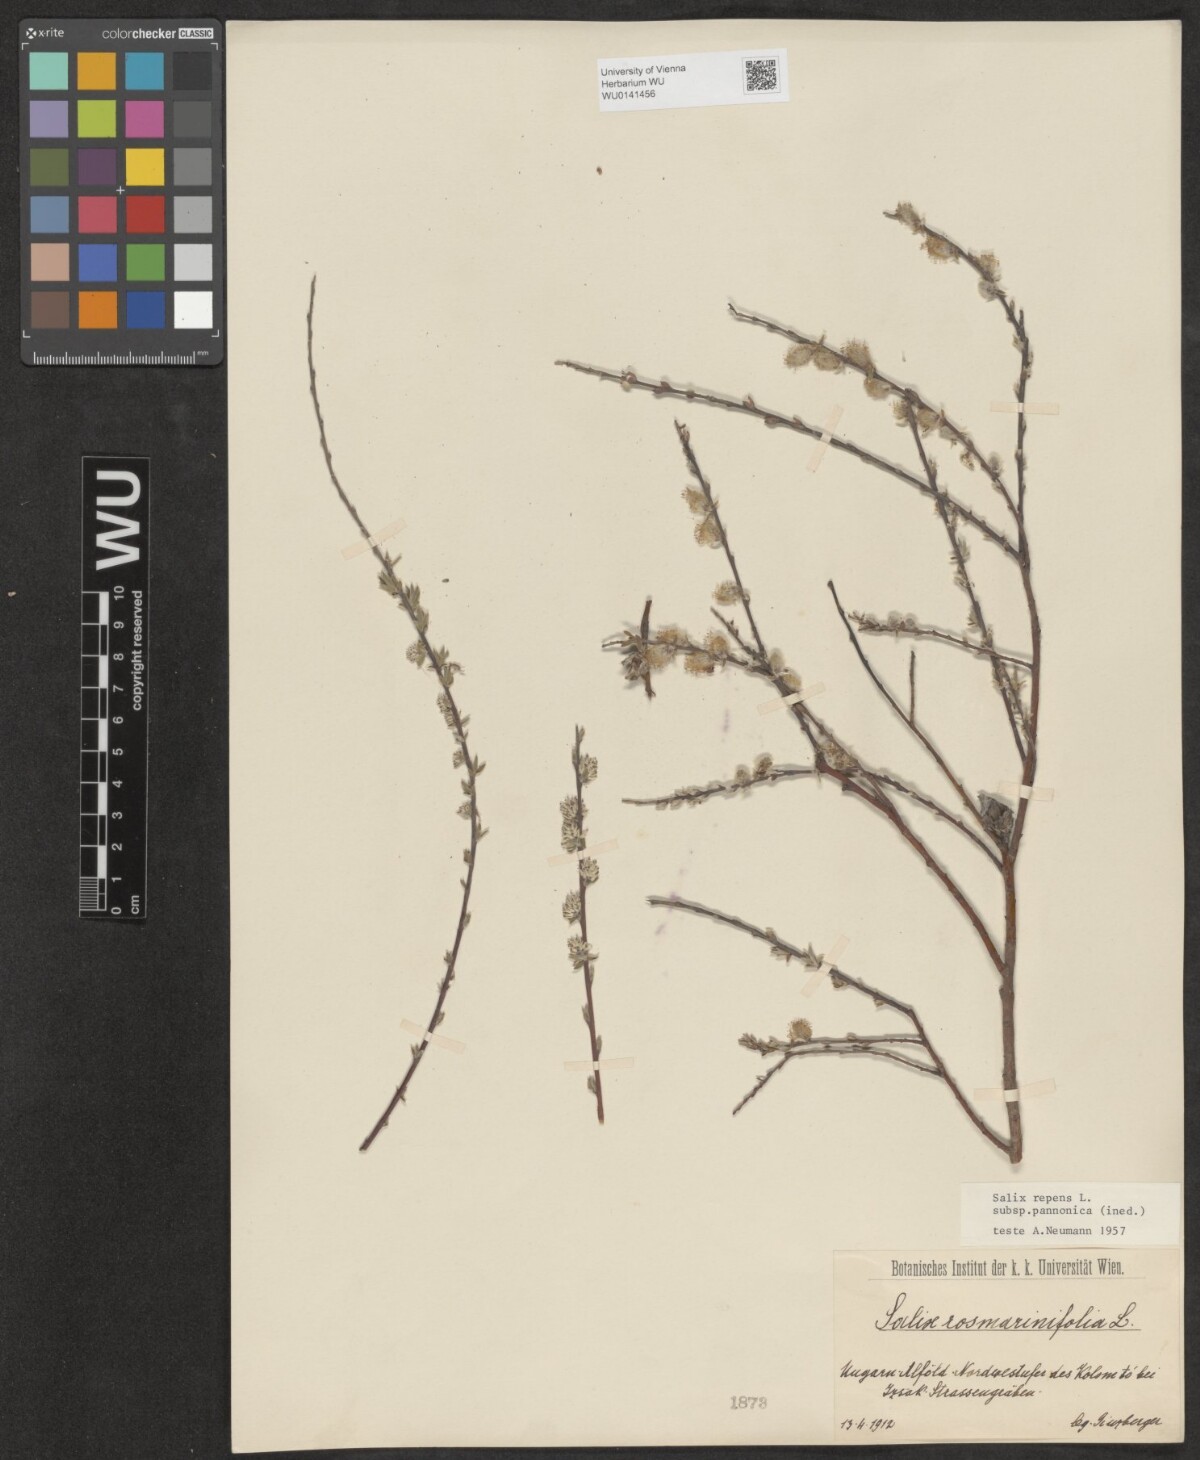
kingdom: Plantae
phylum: Tracheophyta
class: Magnoliopsida
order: Malpighiales
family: Salicaceae
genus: Salix
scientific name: Salix repens
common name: Creeping willow
